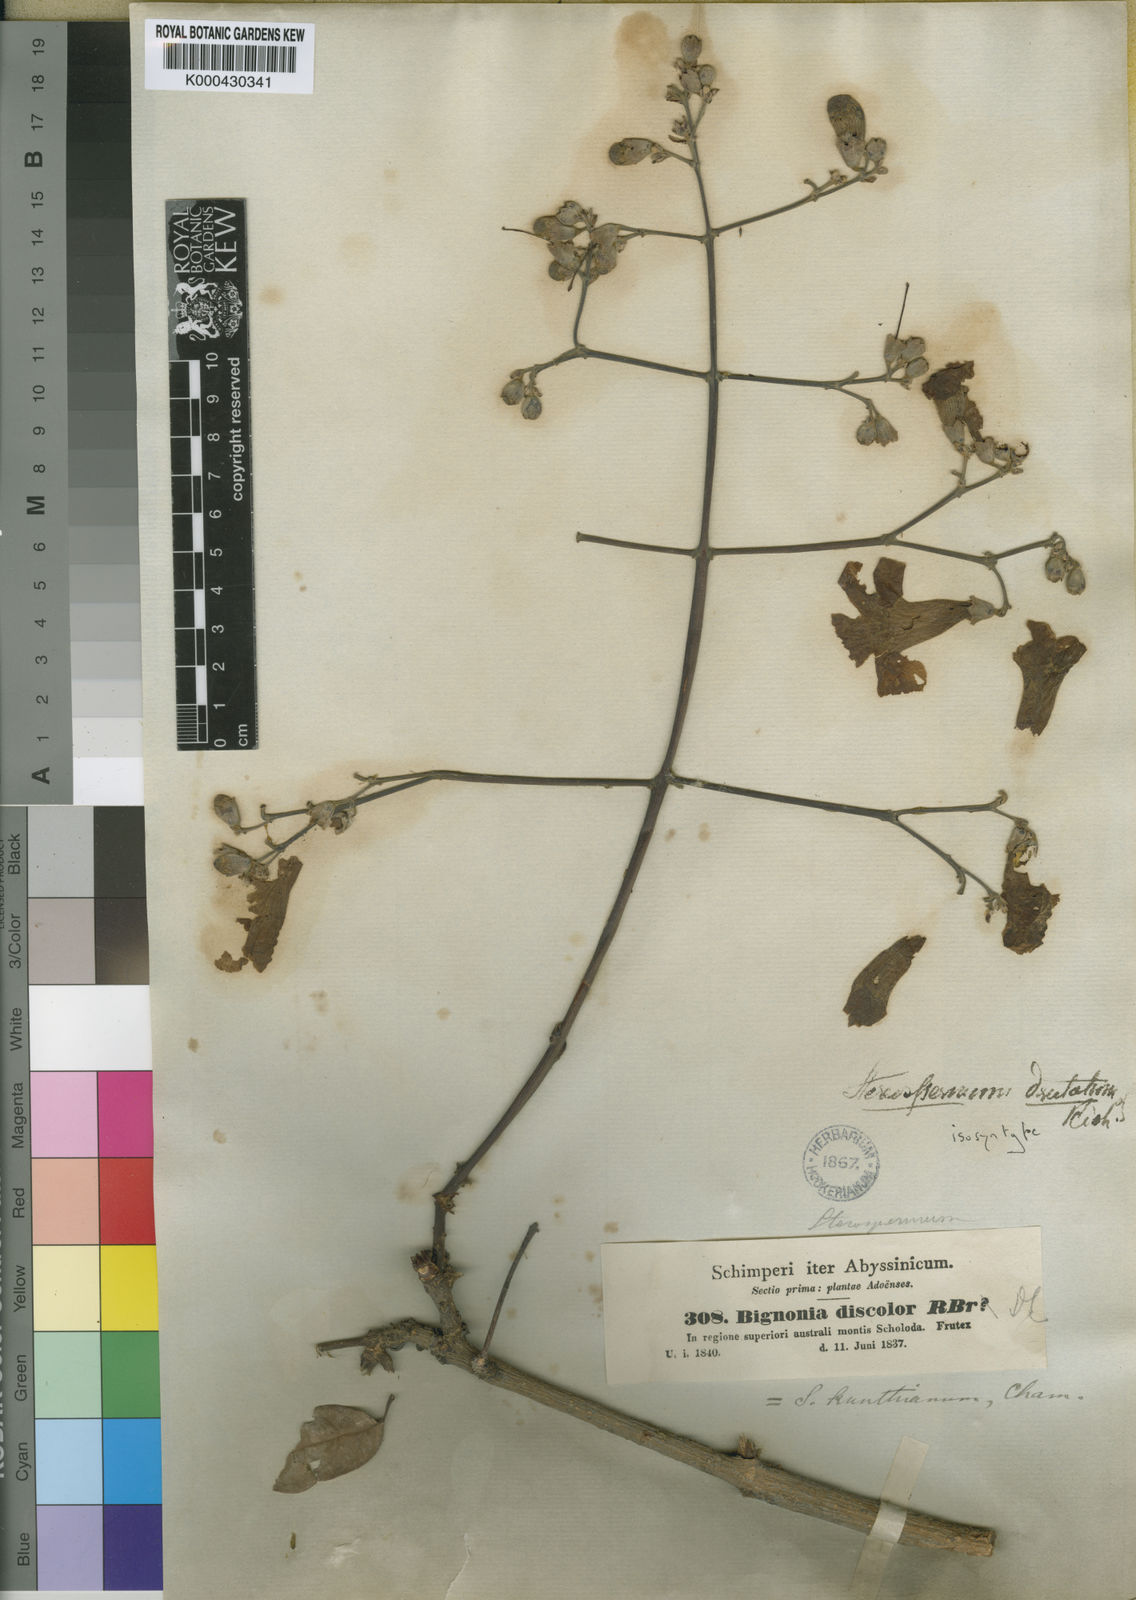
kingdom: Plantae
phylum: Tracheophyta
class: Magnoliopsida
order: Lamiales
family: Bignoniaceae
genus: Stereospermum
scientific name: Stereospermum kunthianum
